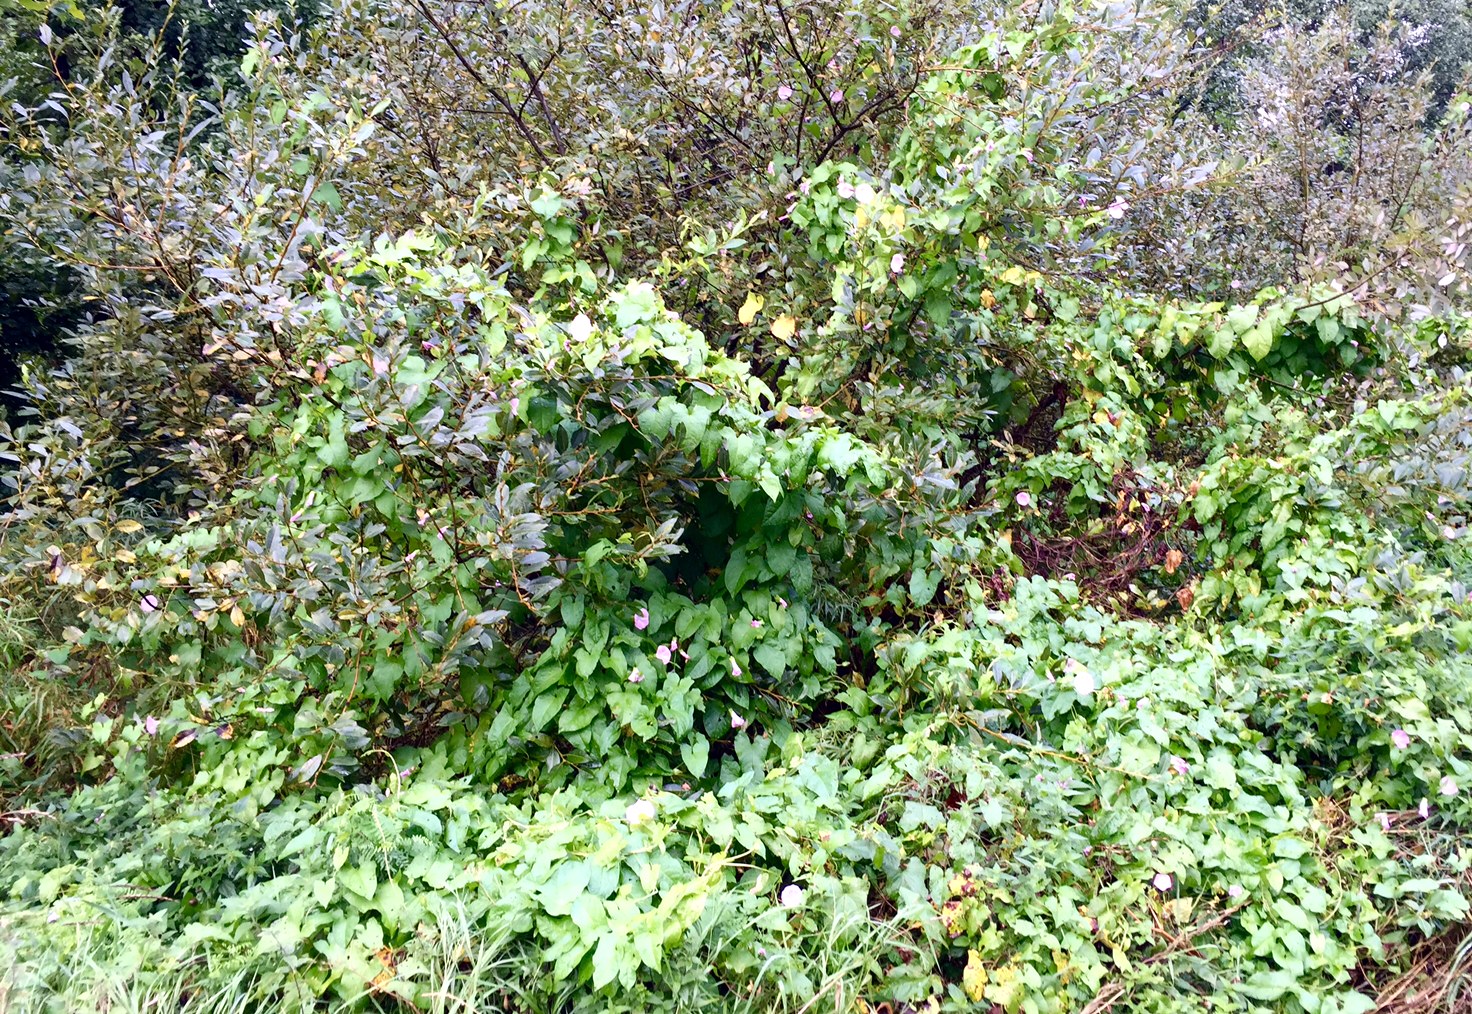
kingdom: Plantae
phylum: Tracheophyta
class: Magnoliopsida
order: Solanales
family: Convolvulaceae
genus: Calystegia
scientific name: Calystegia sepium
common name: Hedge bindweed
